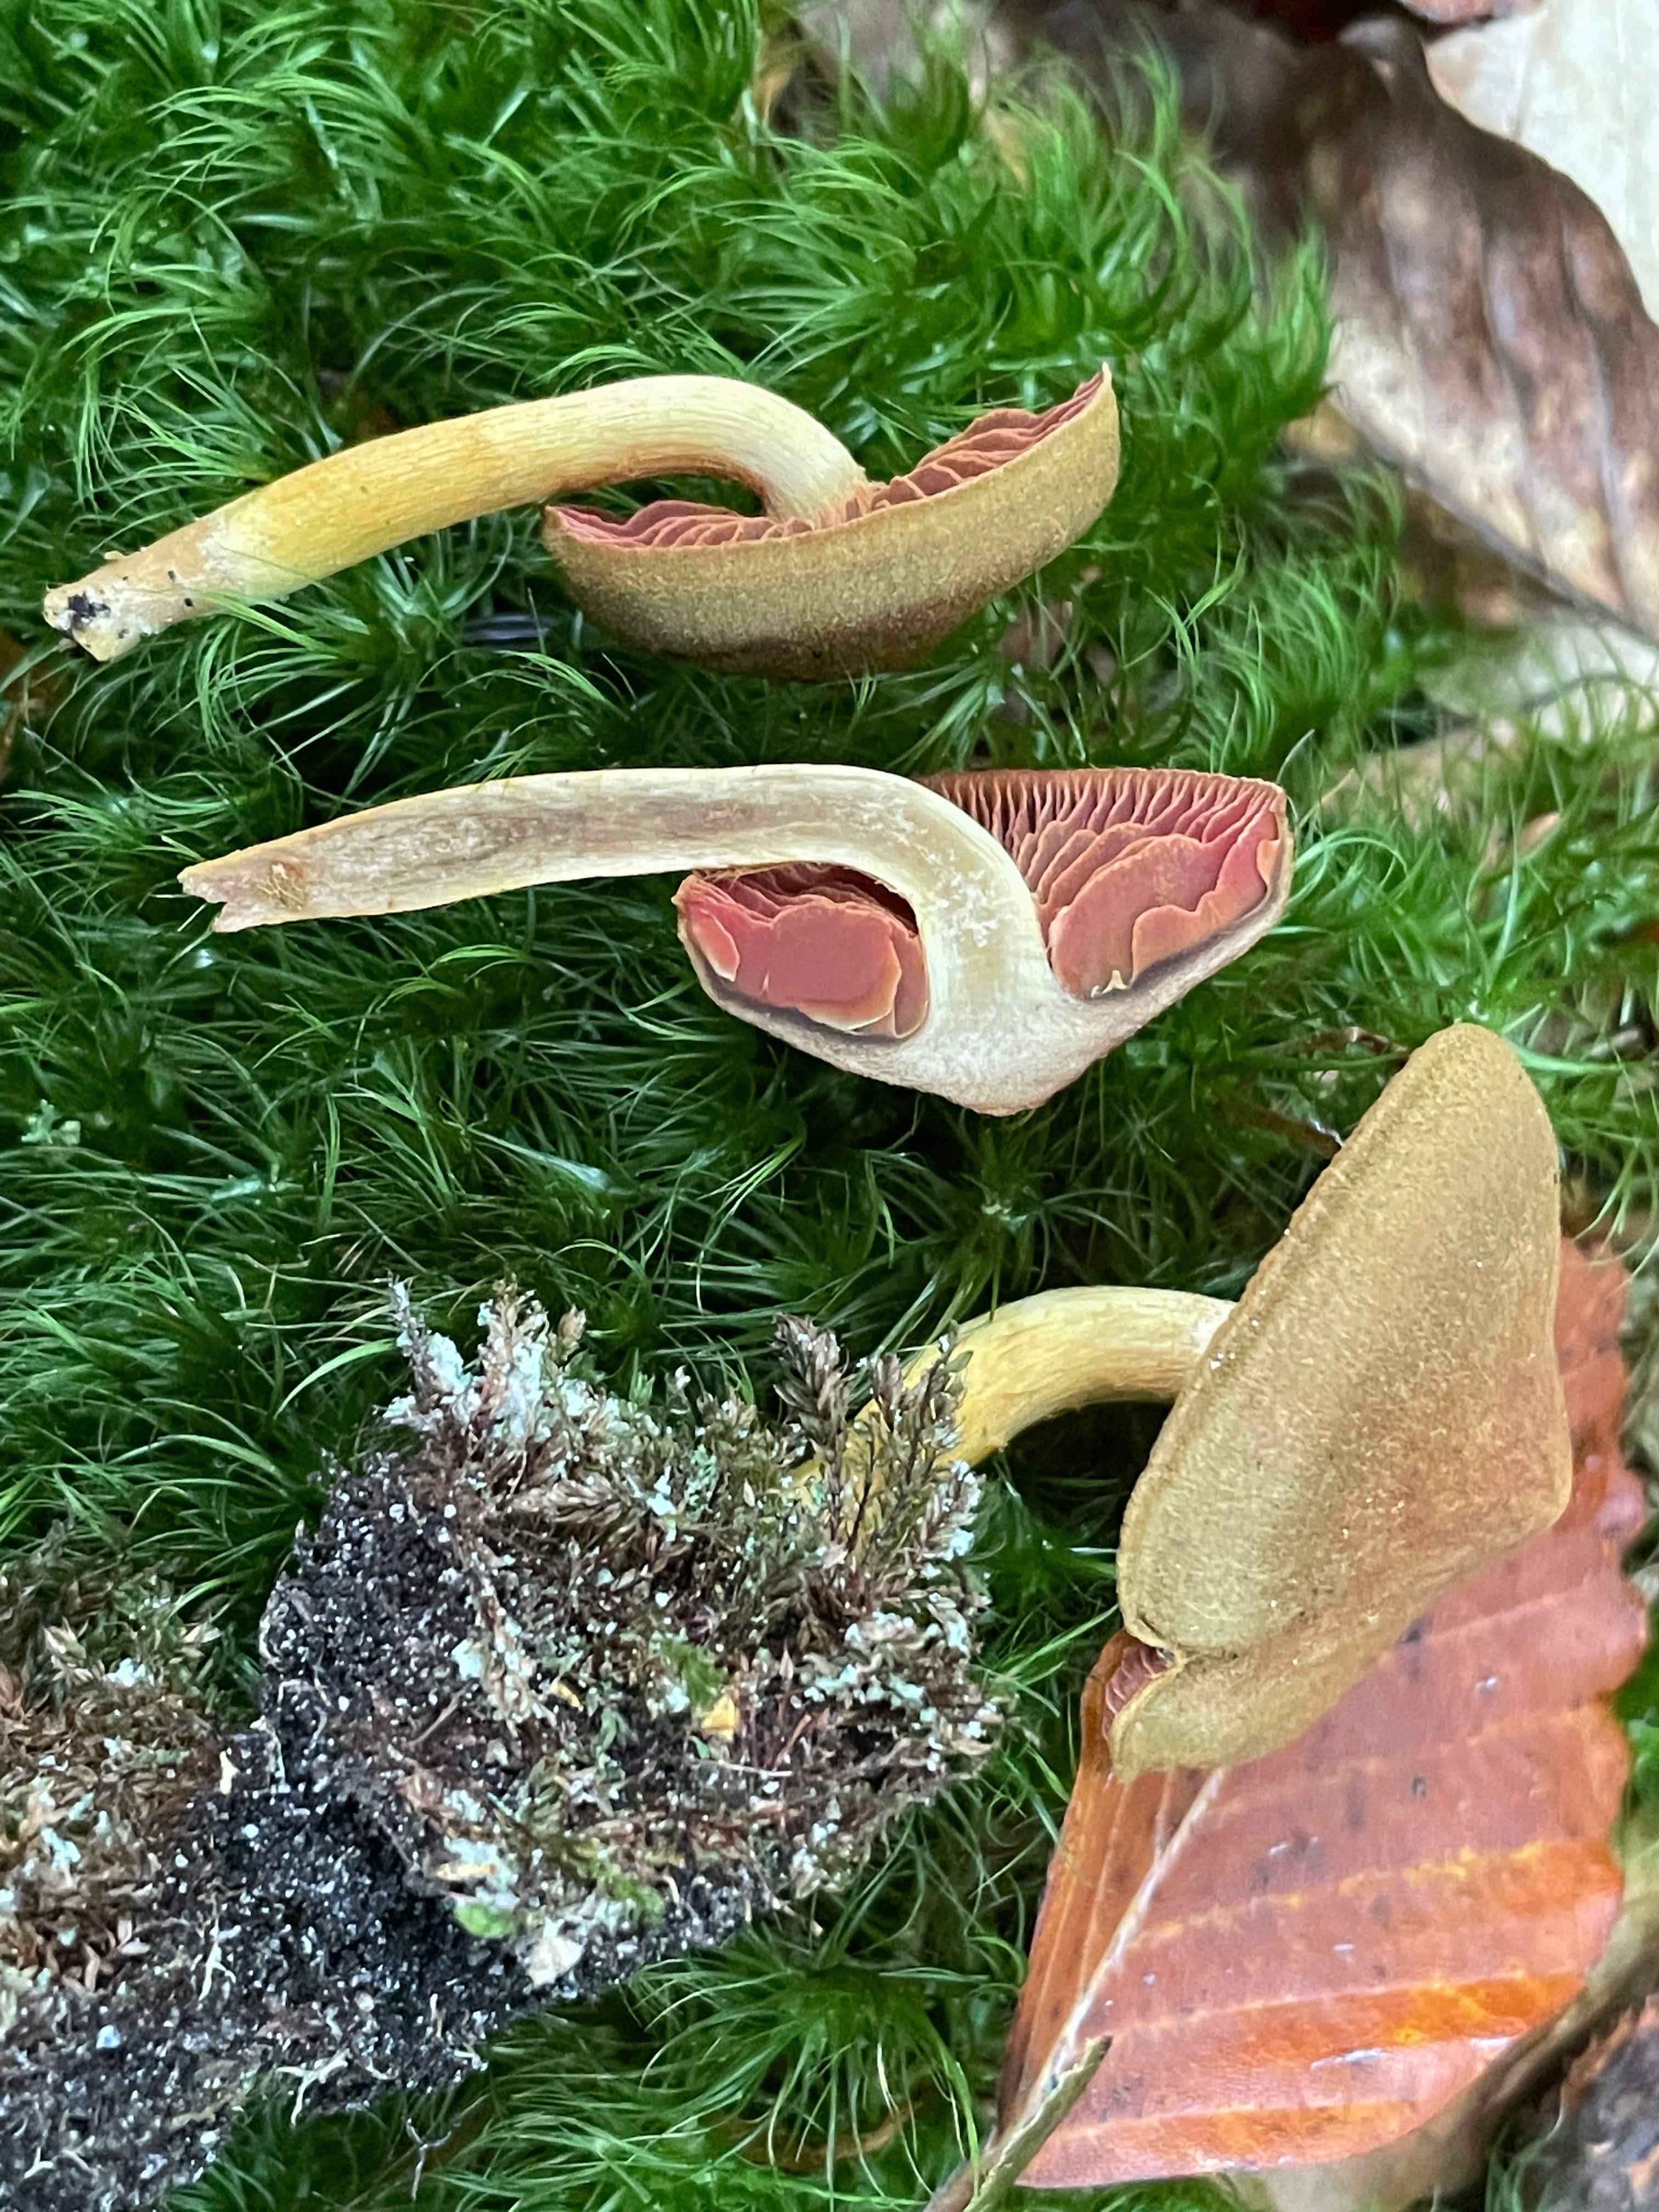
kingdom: Fungi
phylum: Basidiomycota
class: Agaricomycetes
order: Agaricales
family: Cortinariaceae
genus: Cortinarius
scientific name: Cortinarius
